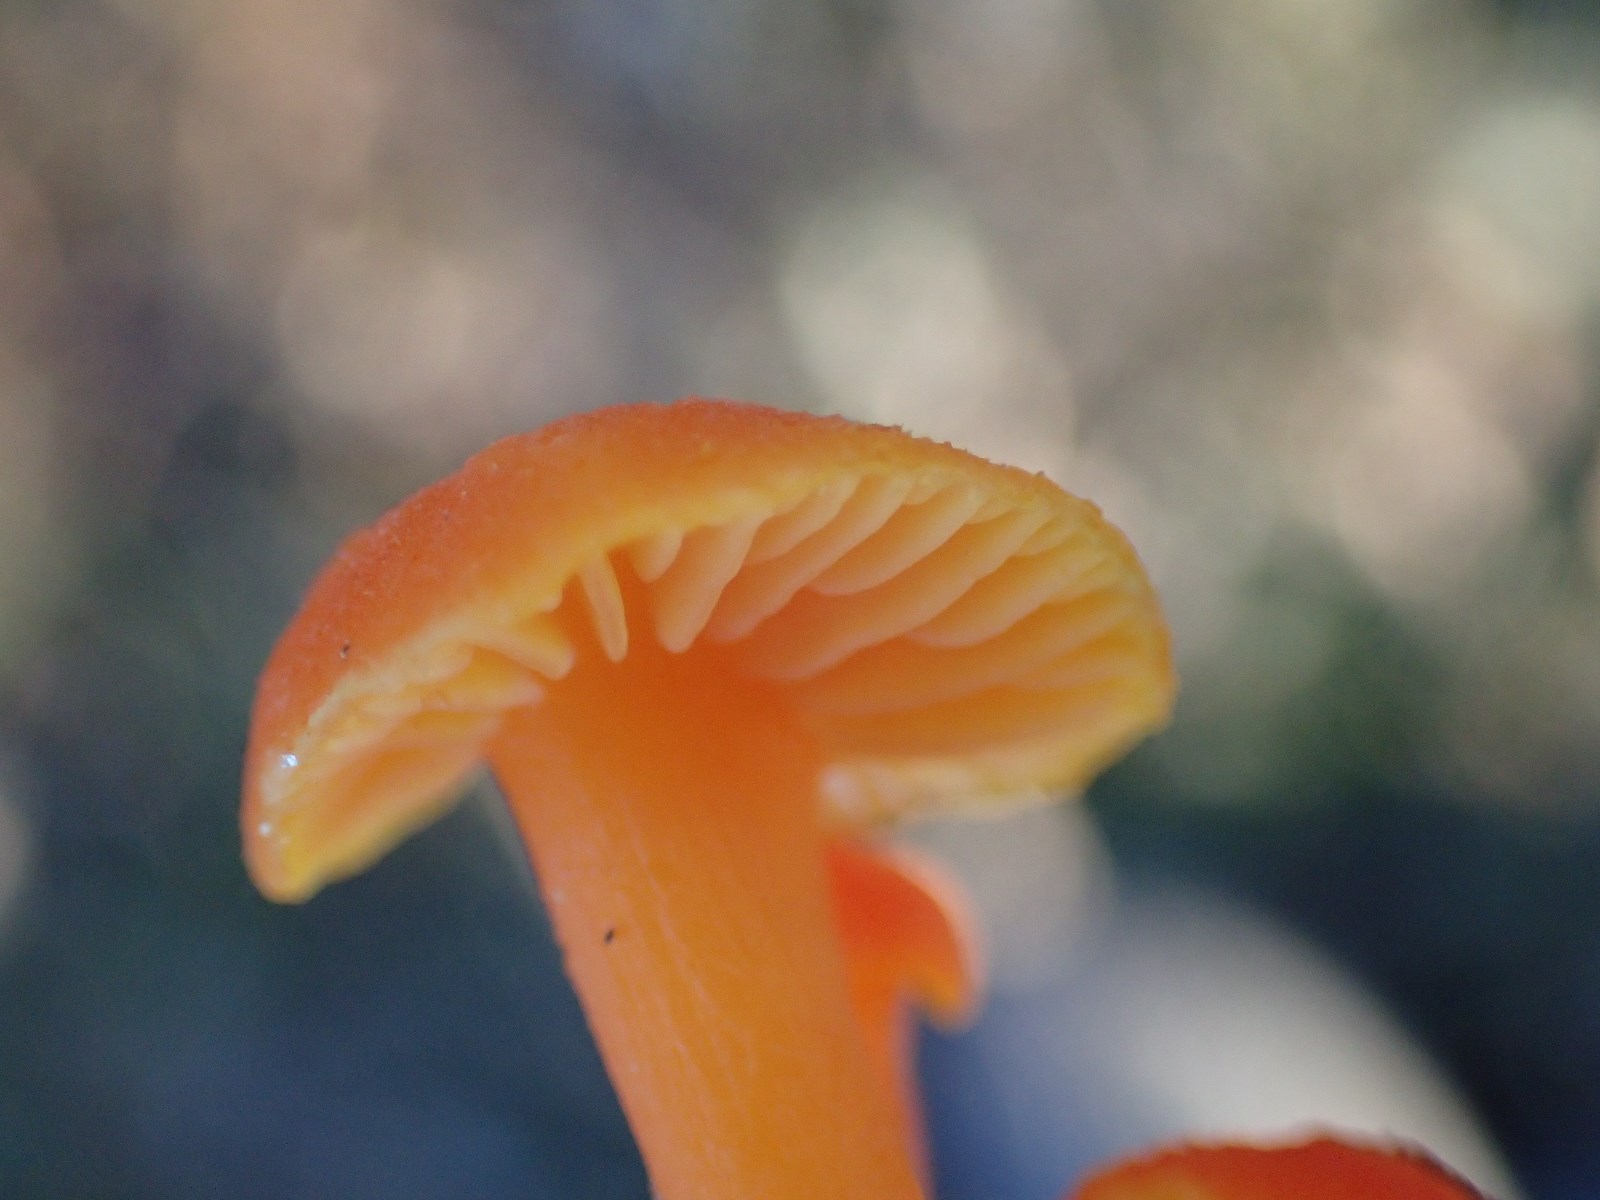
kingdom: Fungi
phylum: Basidiomycota
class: Agaricomycetes
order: Agaricales
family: Hygrophoraceae
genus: Hygrocybe
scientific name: Hygrocybe miniata
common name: mønje-vokshat
